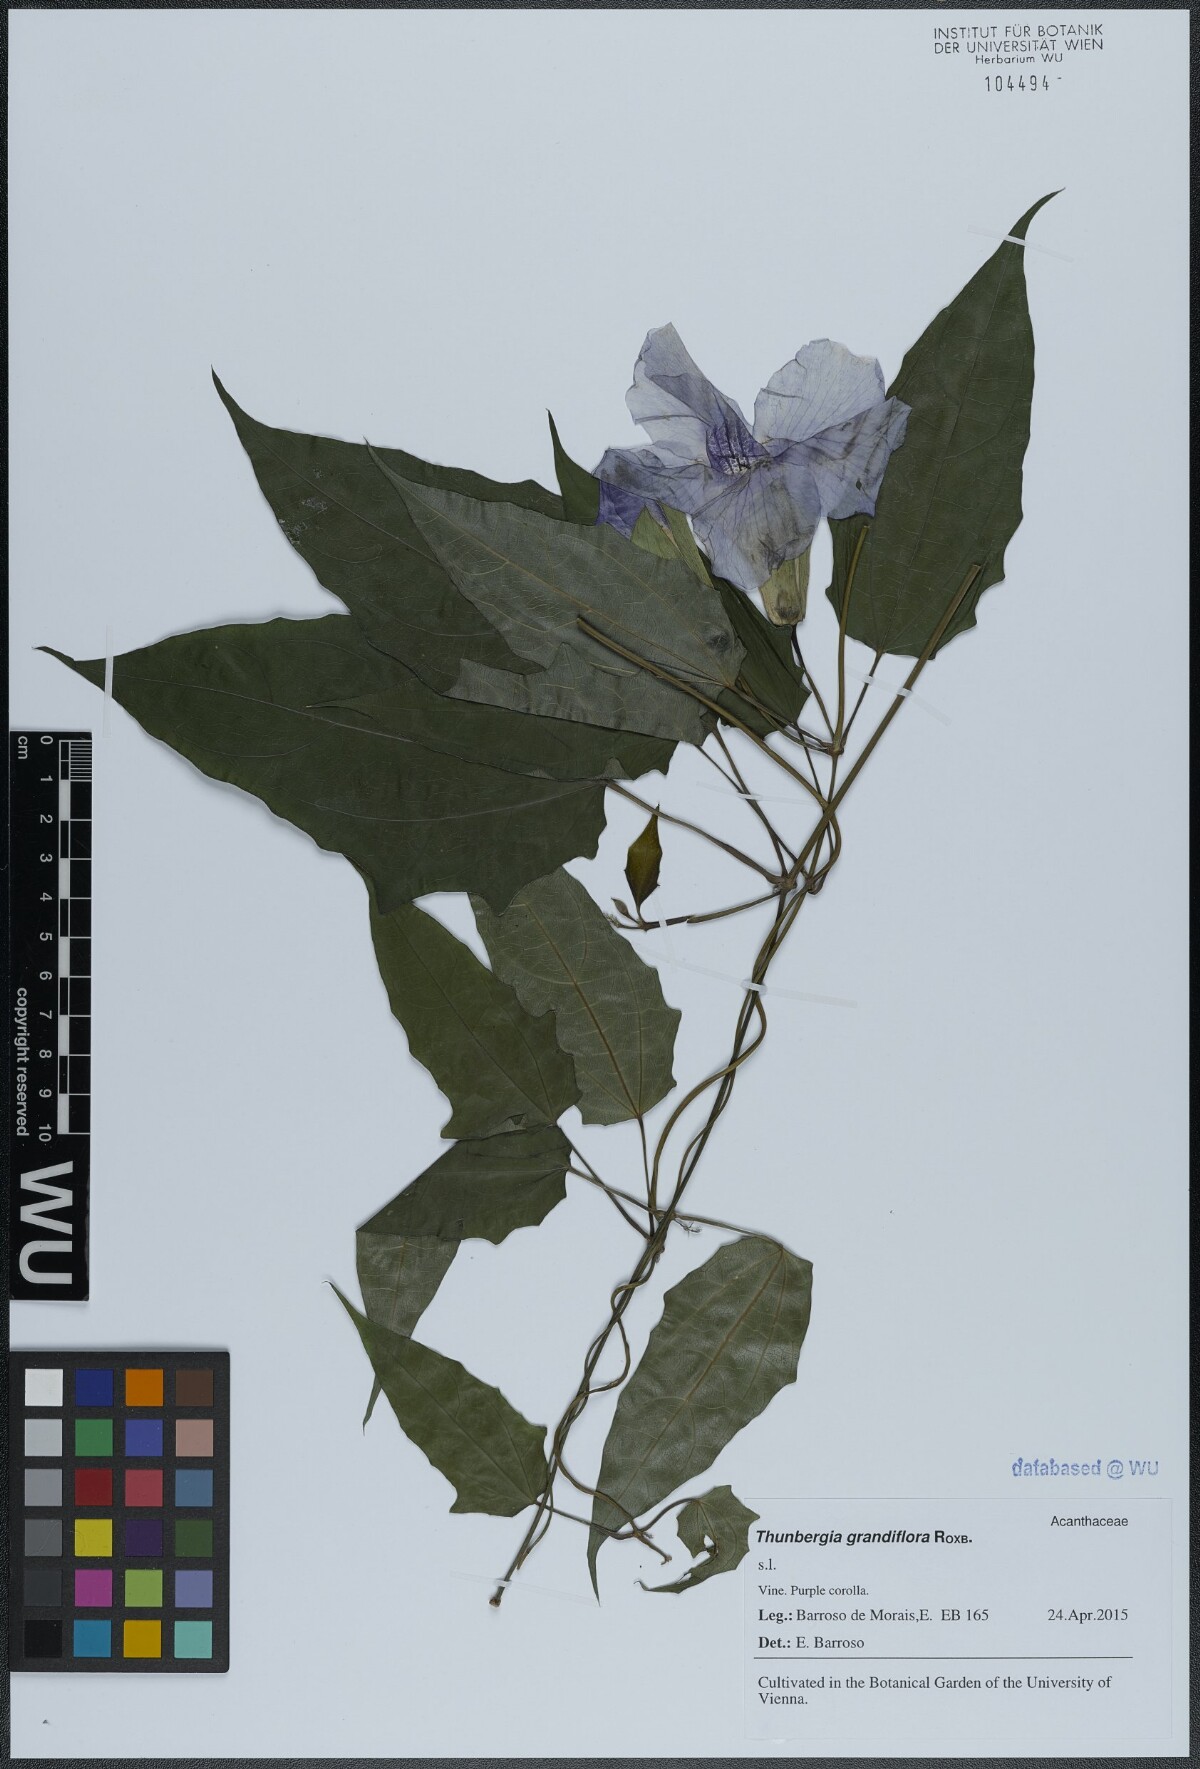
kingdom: Plantae
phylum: Tracheophyta
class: Magnoliopsida
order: Lamiales
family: Acanthaceae
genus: Thunbergia
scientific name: Thunbergia grandiflora
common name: Bengal trumpet
